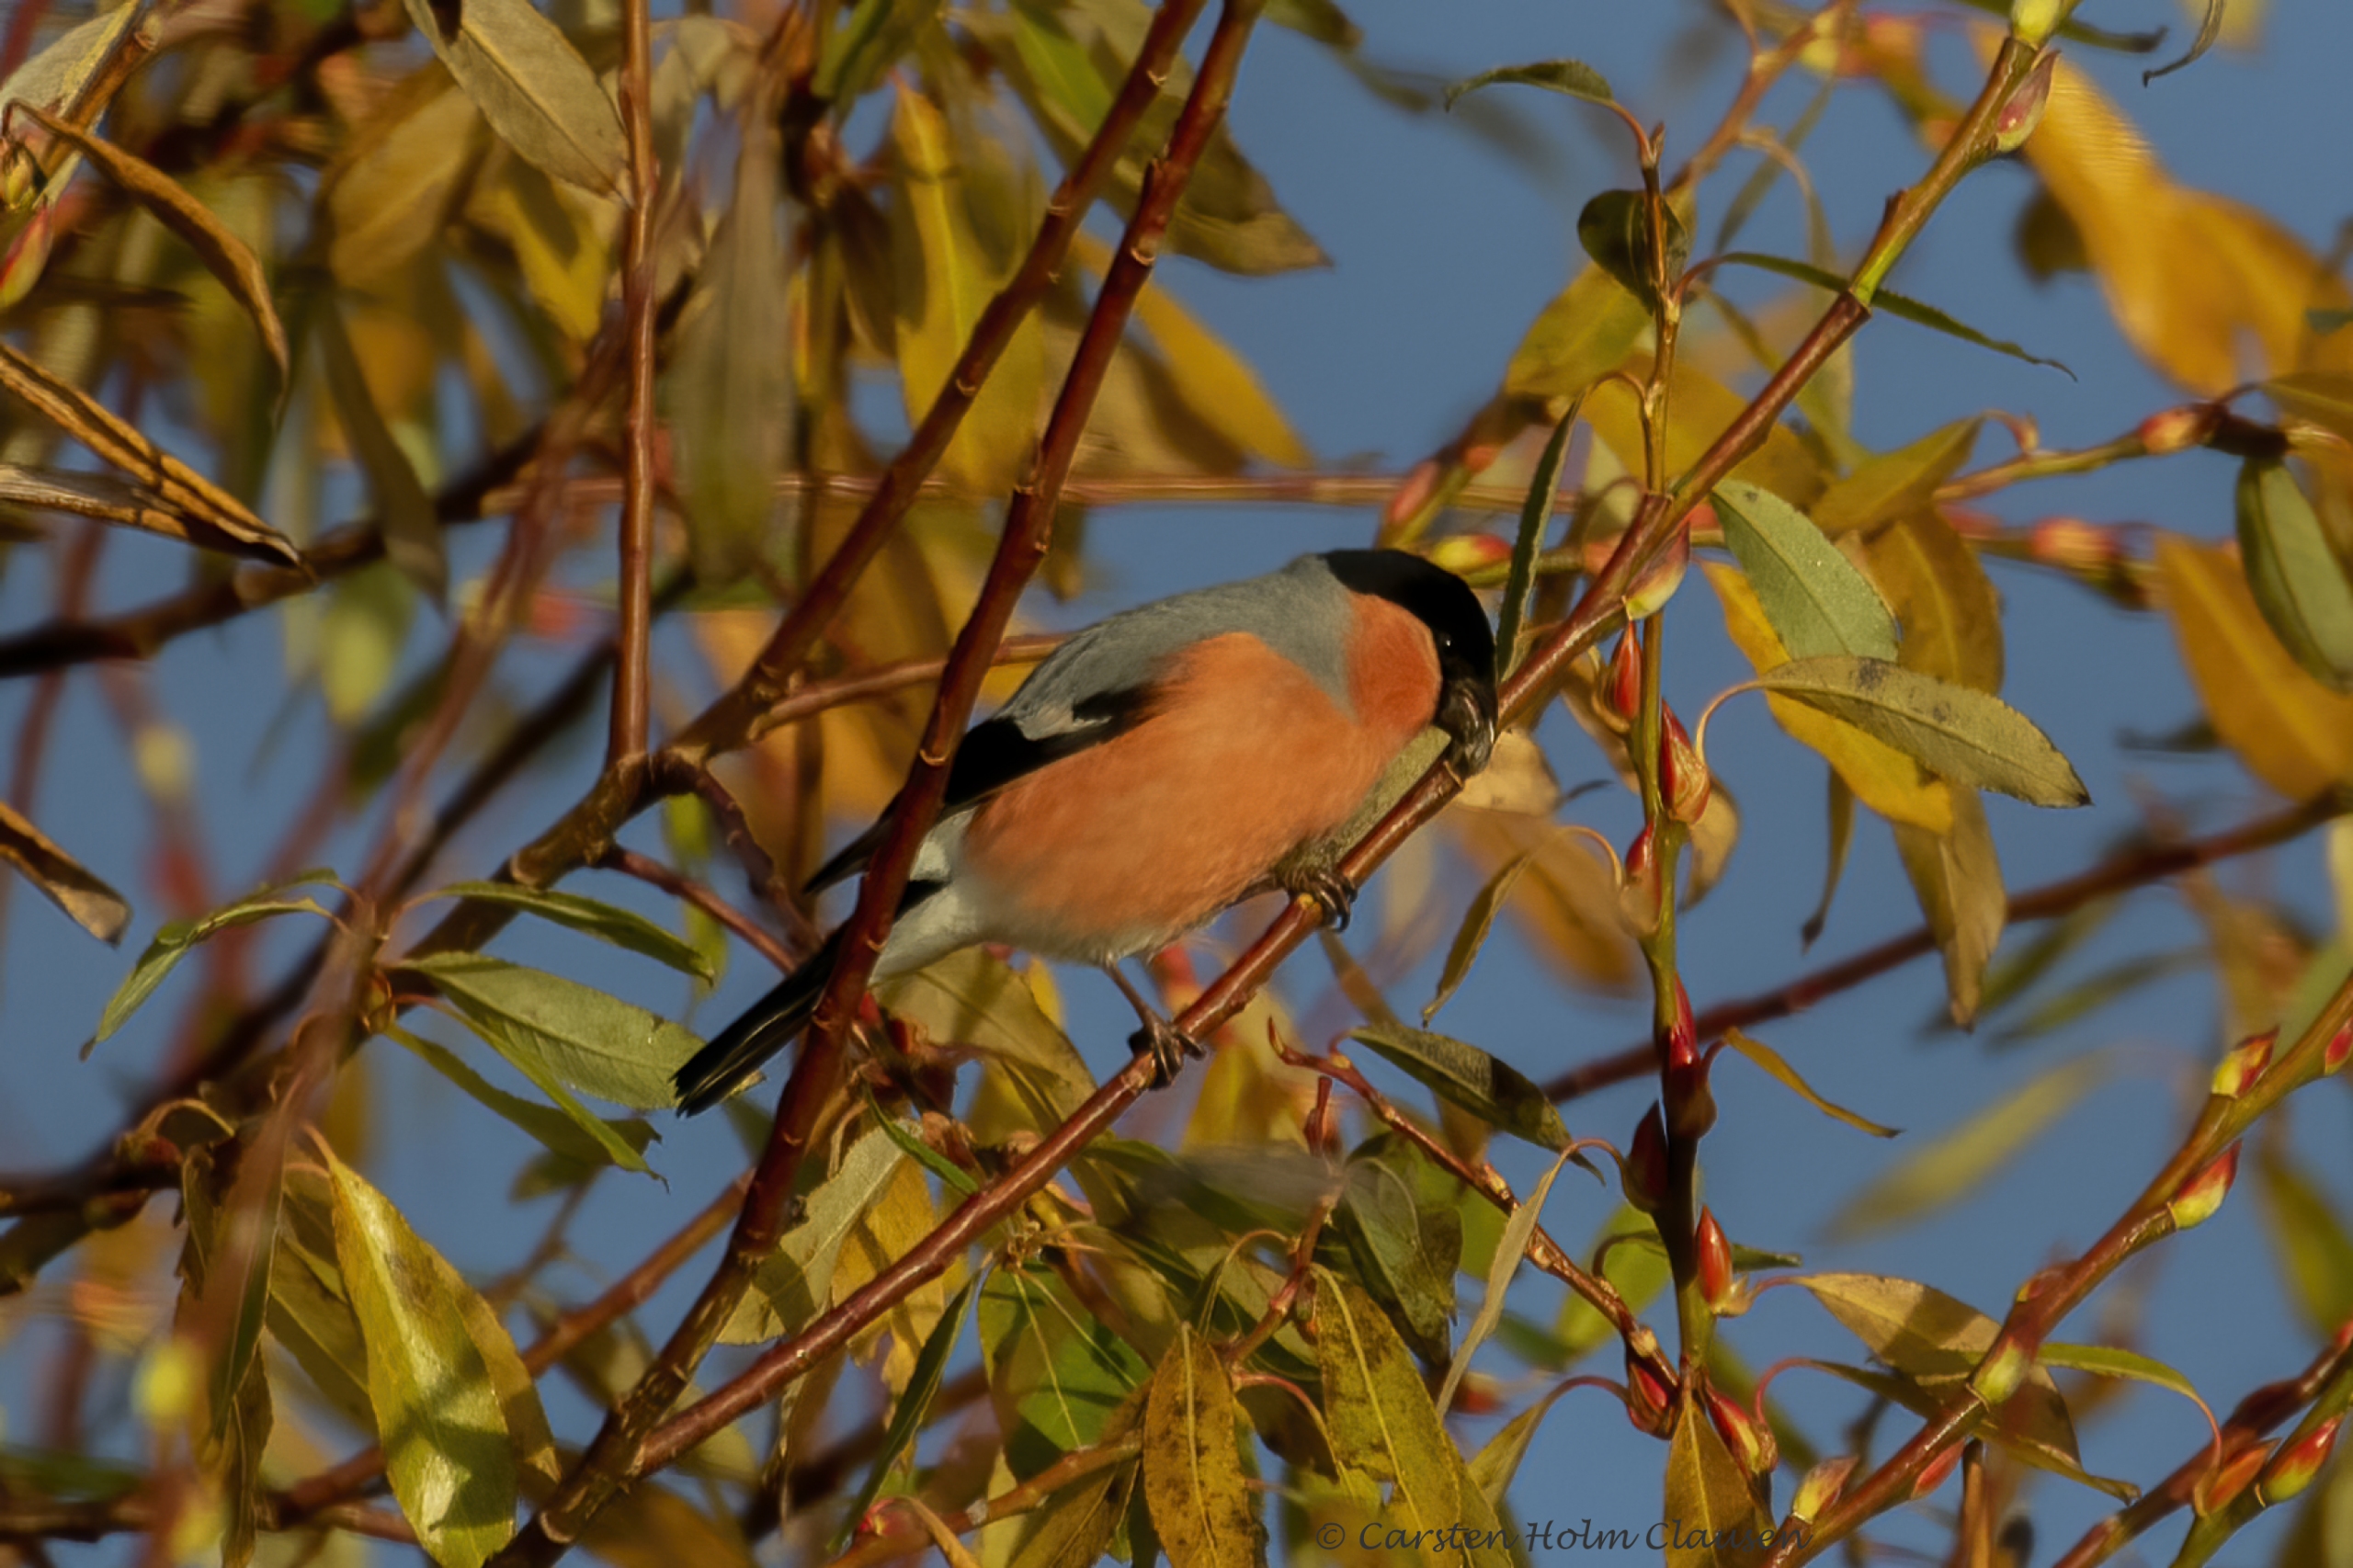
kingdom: Animalia
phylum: Chordata
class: Aves
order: Passeriformes
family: Fringillidae
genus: Pyrrhula
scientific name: Pyrrhula pyrrhula
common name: Dompap
